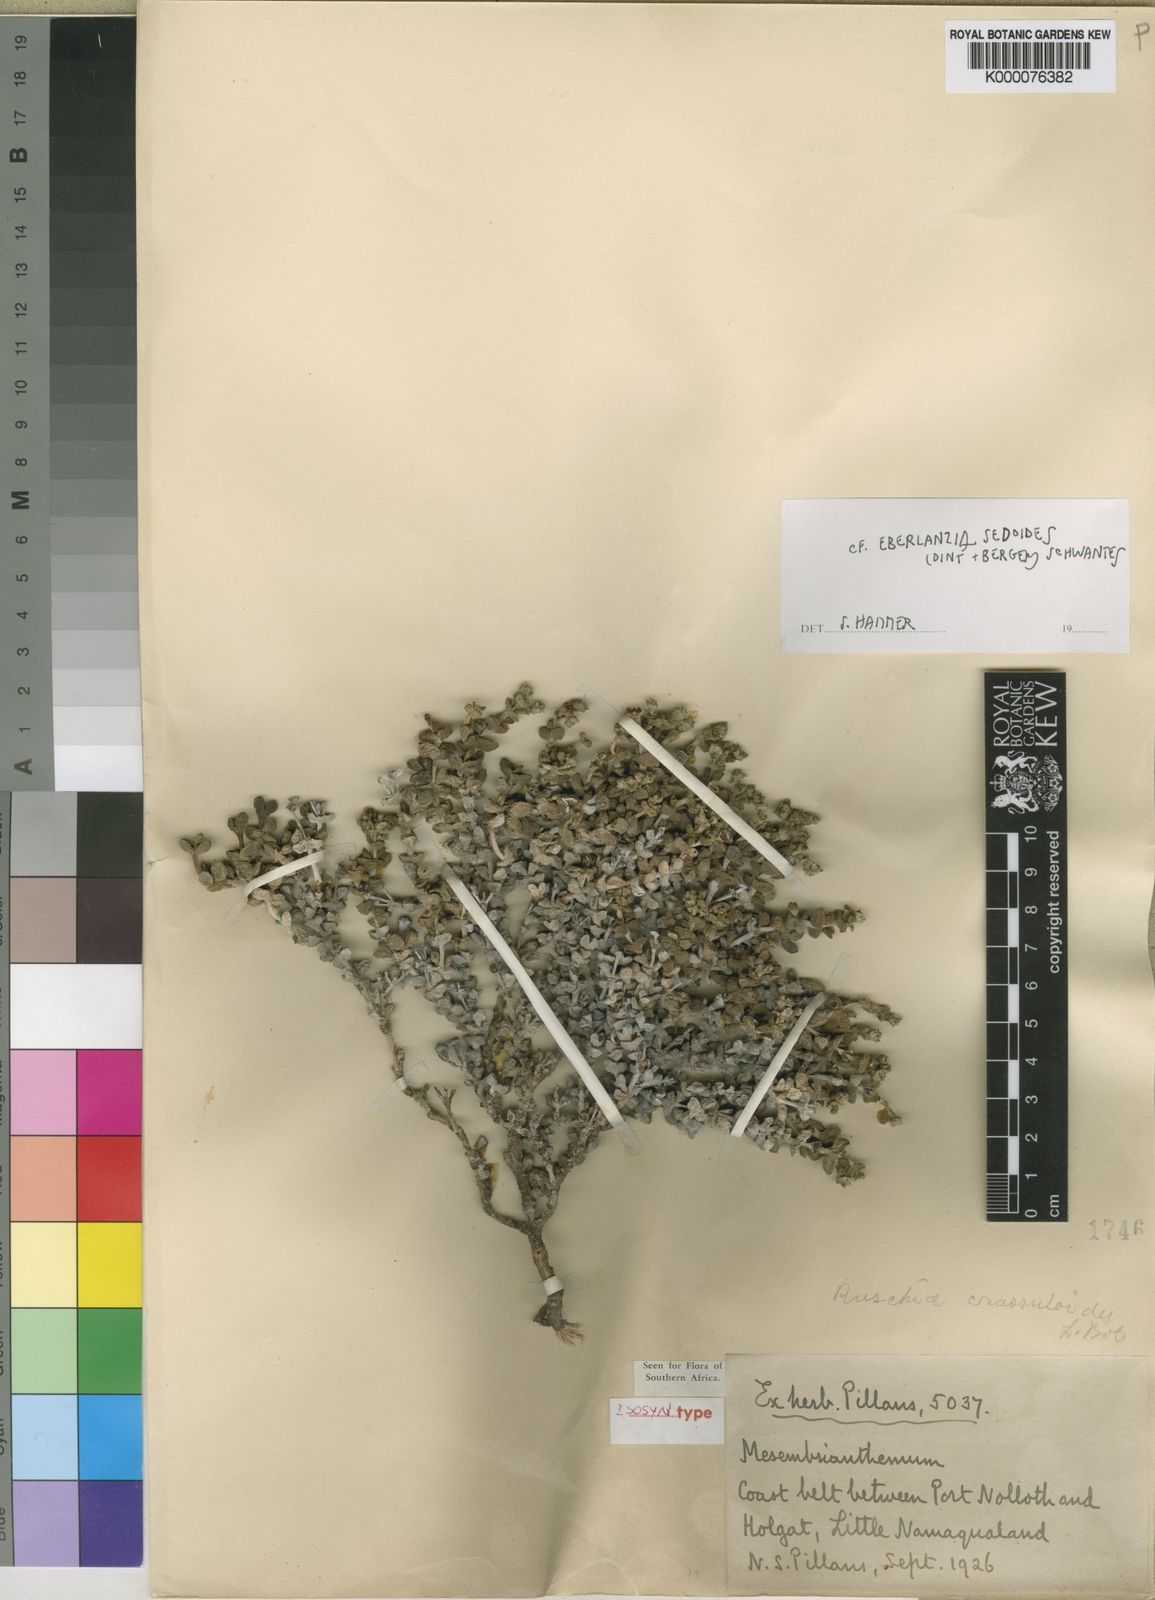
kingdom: Plantae
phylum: Tracheophyta
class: Magnoliopsida
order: Caryophyllales
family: Aizoaceae
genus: Eberlanzia
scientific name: Eberlanzia
